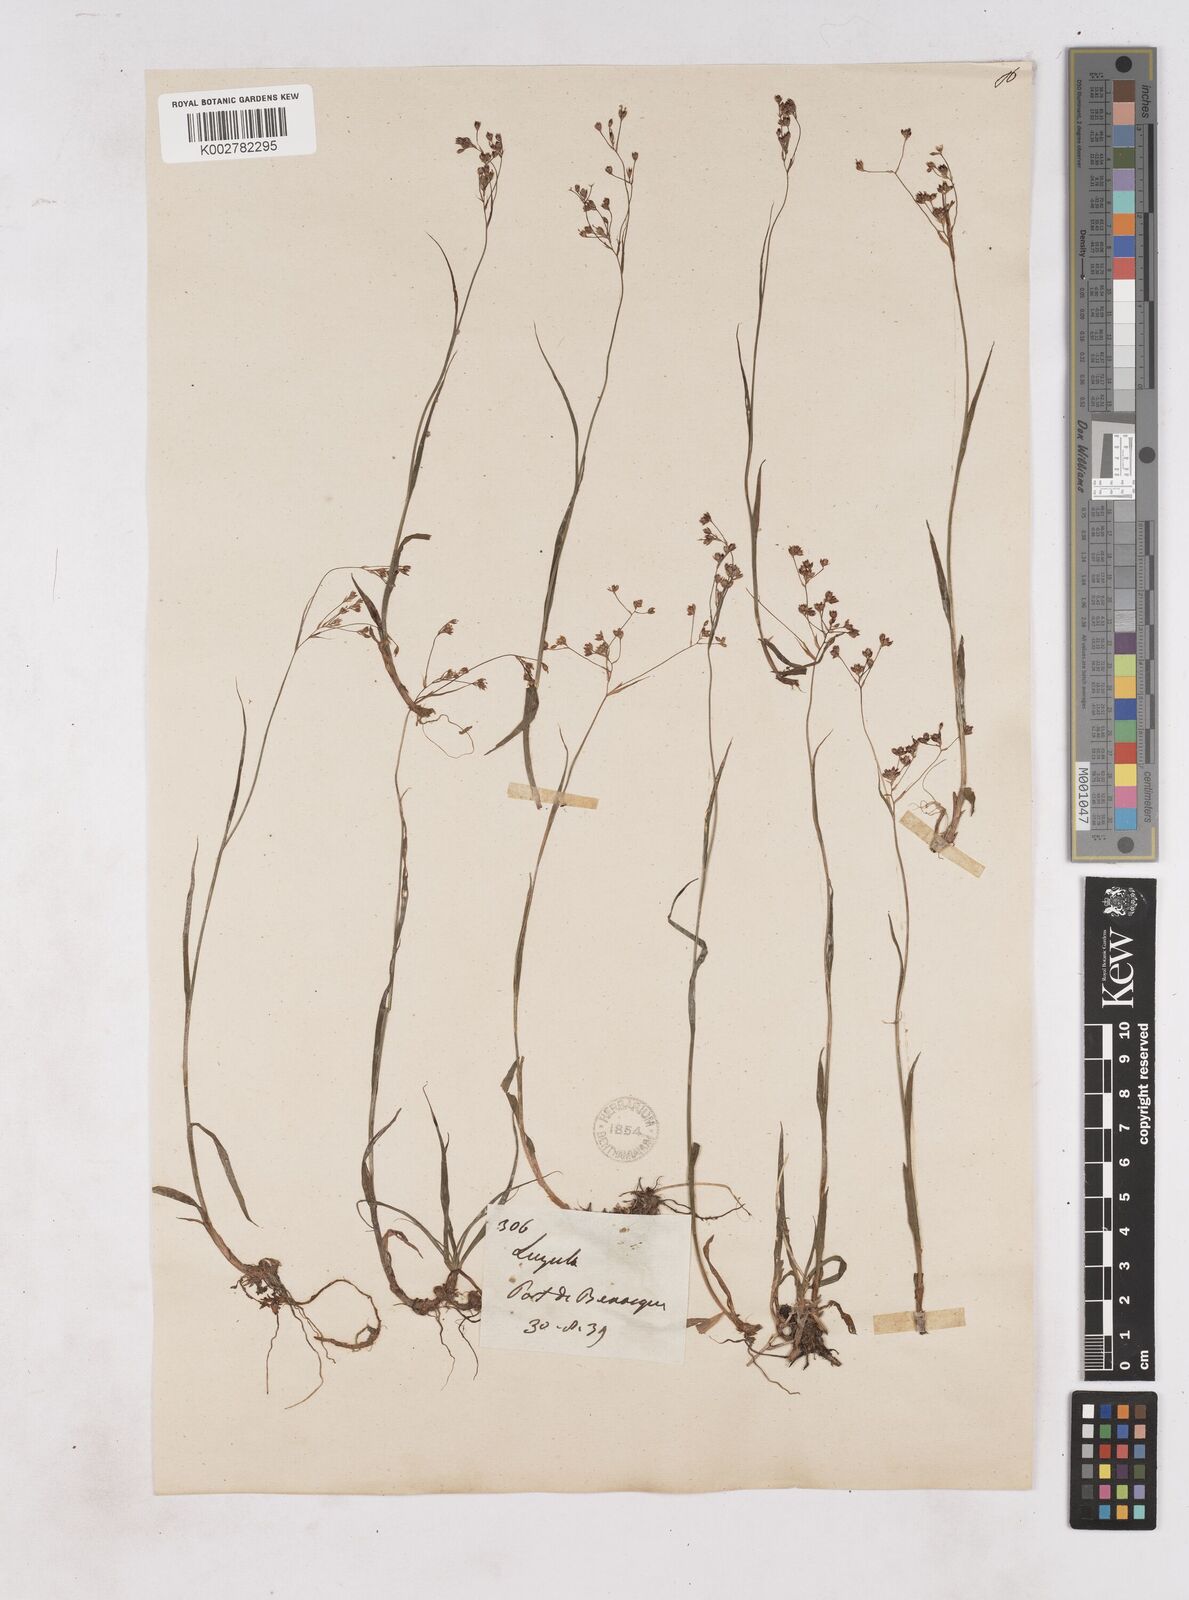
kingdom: Plantae
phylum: Tracheophyta
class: Liliopsida
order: Poales
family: Juncaceae
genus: Luzula
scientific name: Luzula alpinopilosa
